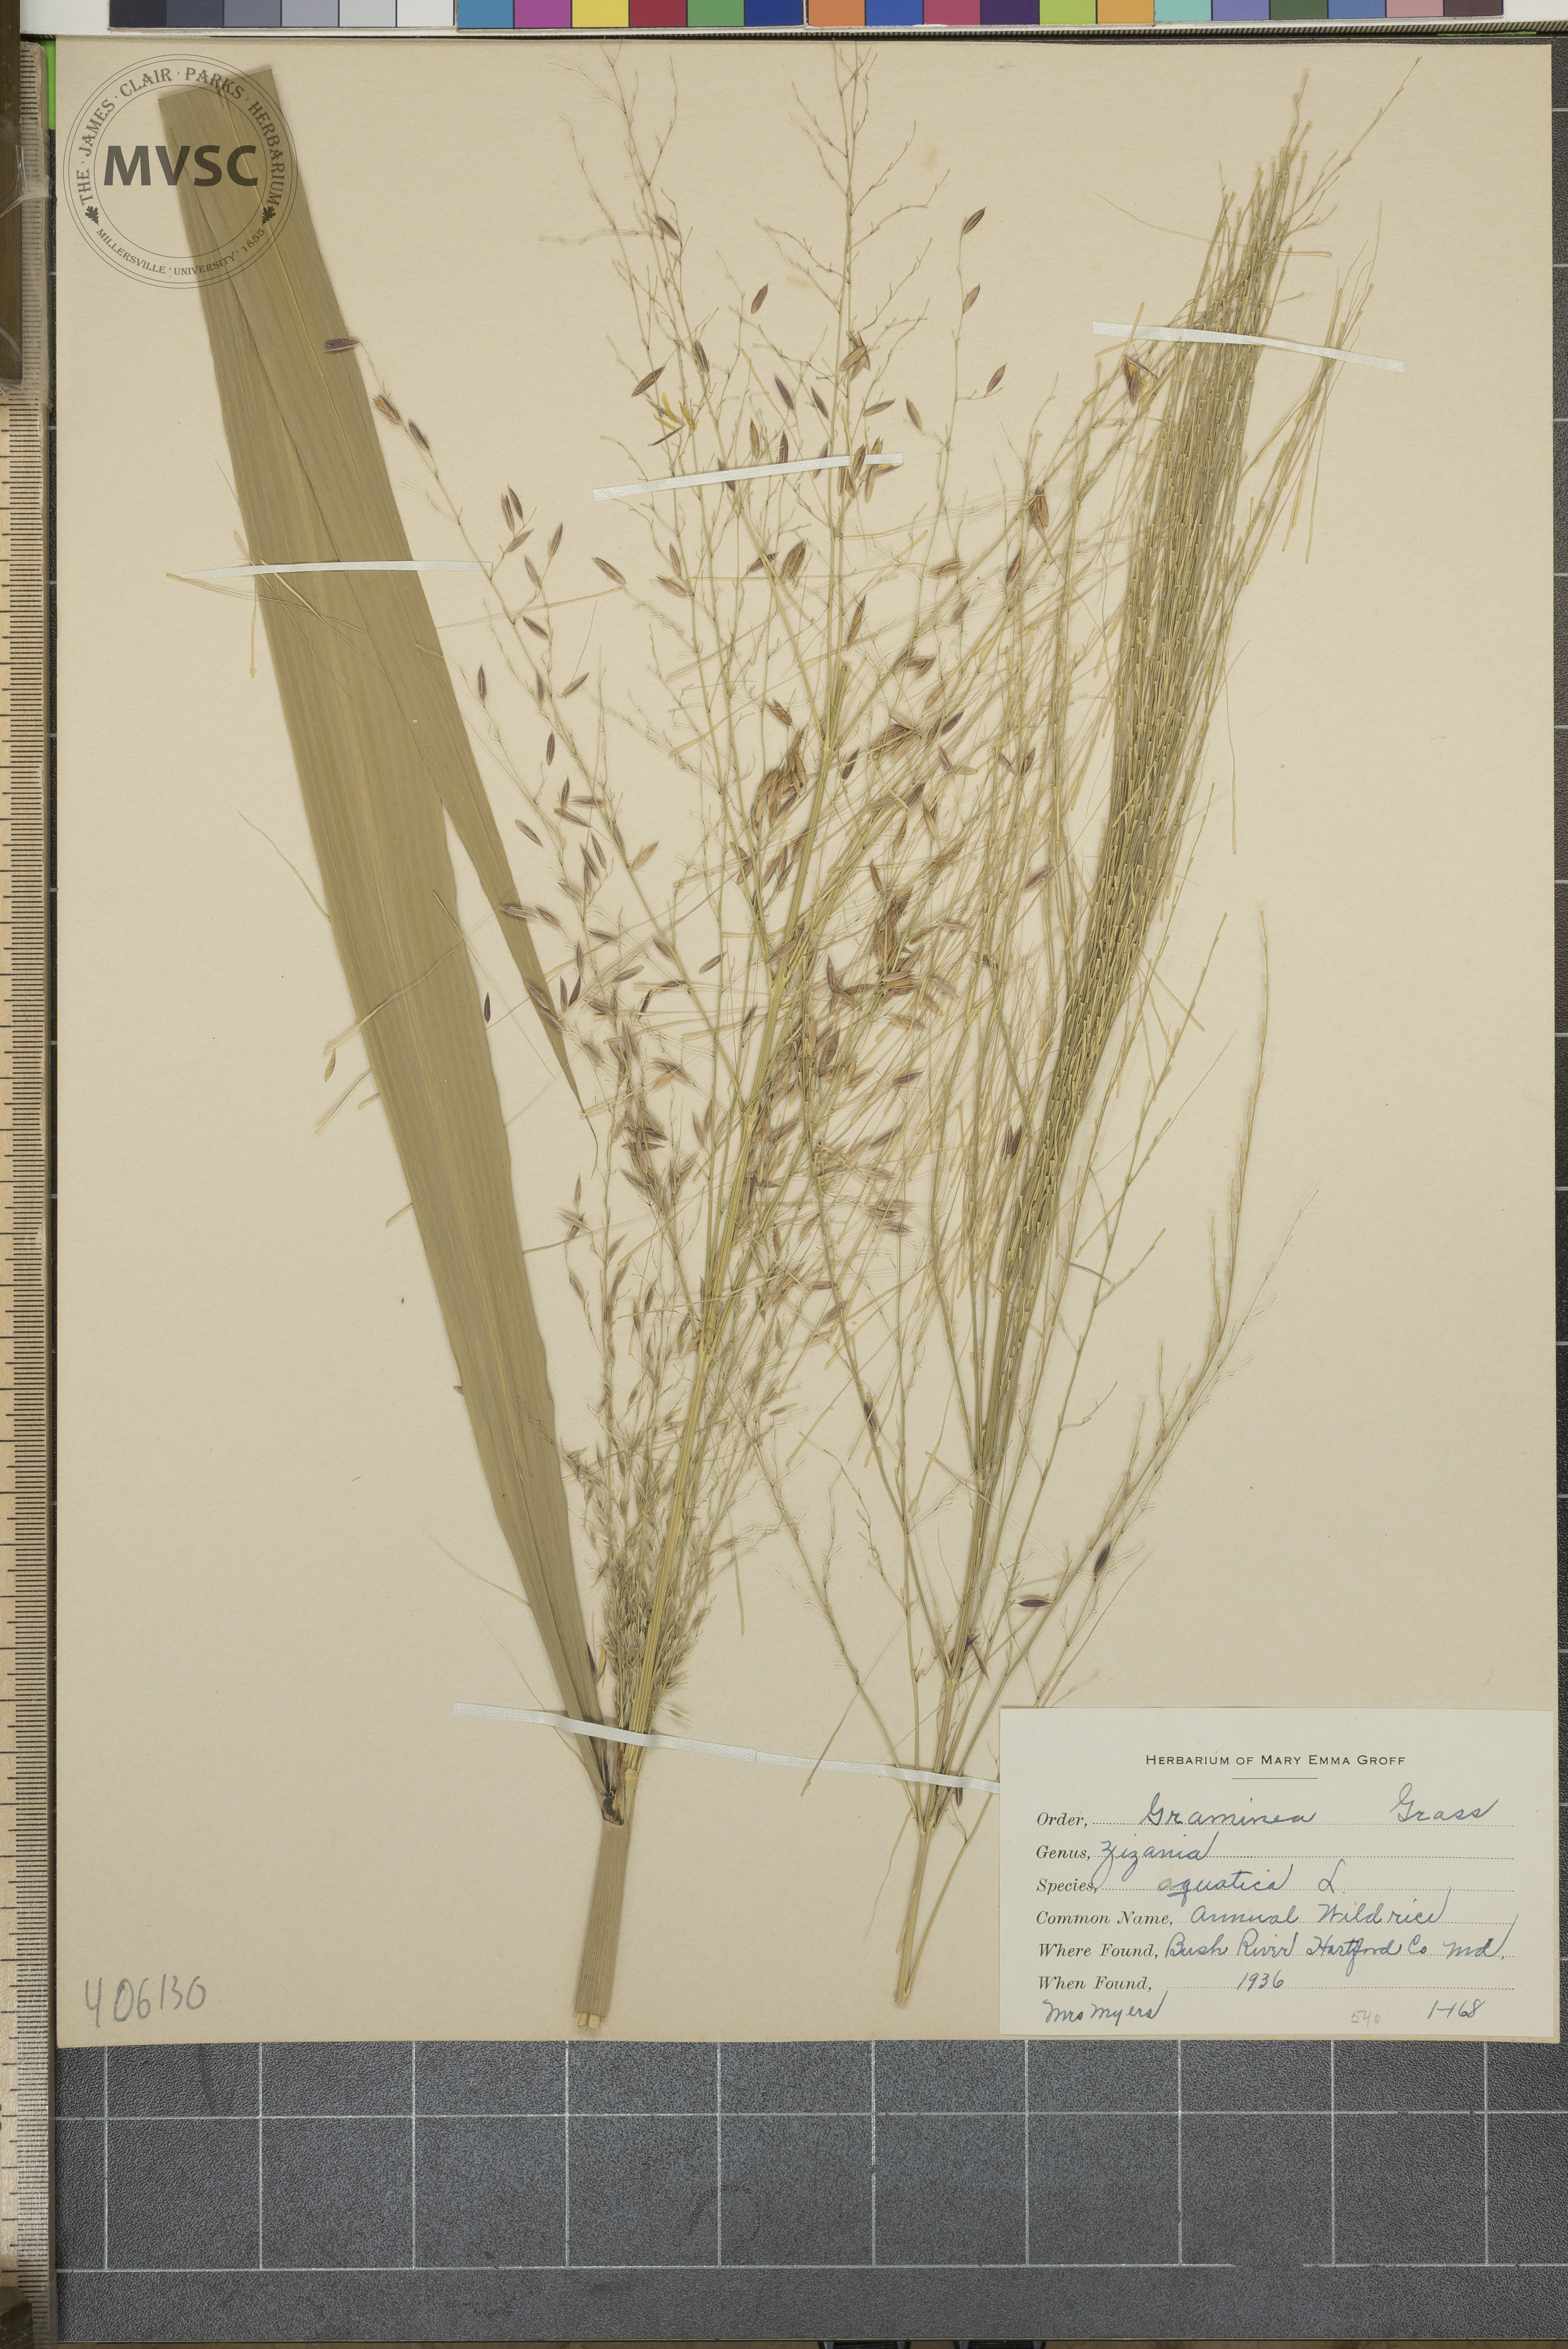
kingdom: Plantae
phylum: Tracheophyta
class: Liliopsida
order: Poales
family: Poaceae
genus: Zizania
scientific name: Zizania aquatica
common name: Annual Wild Rice
